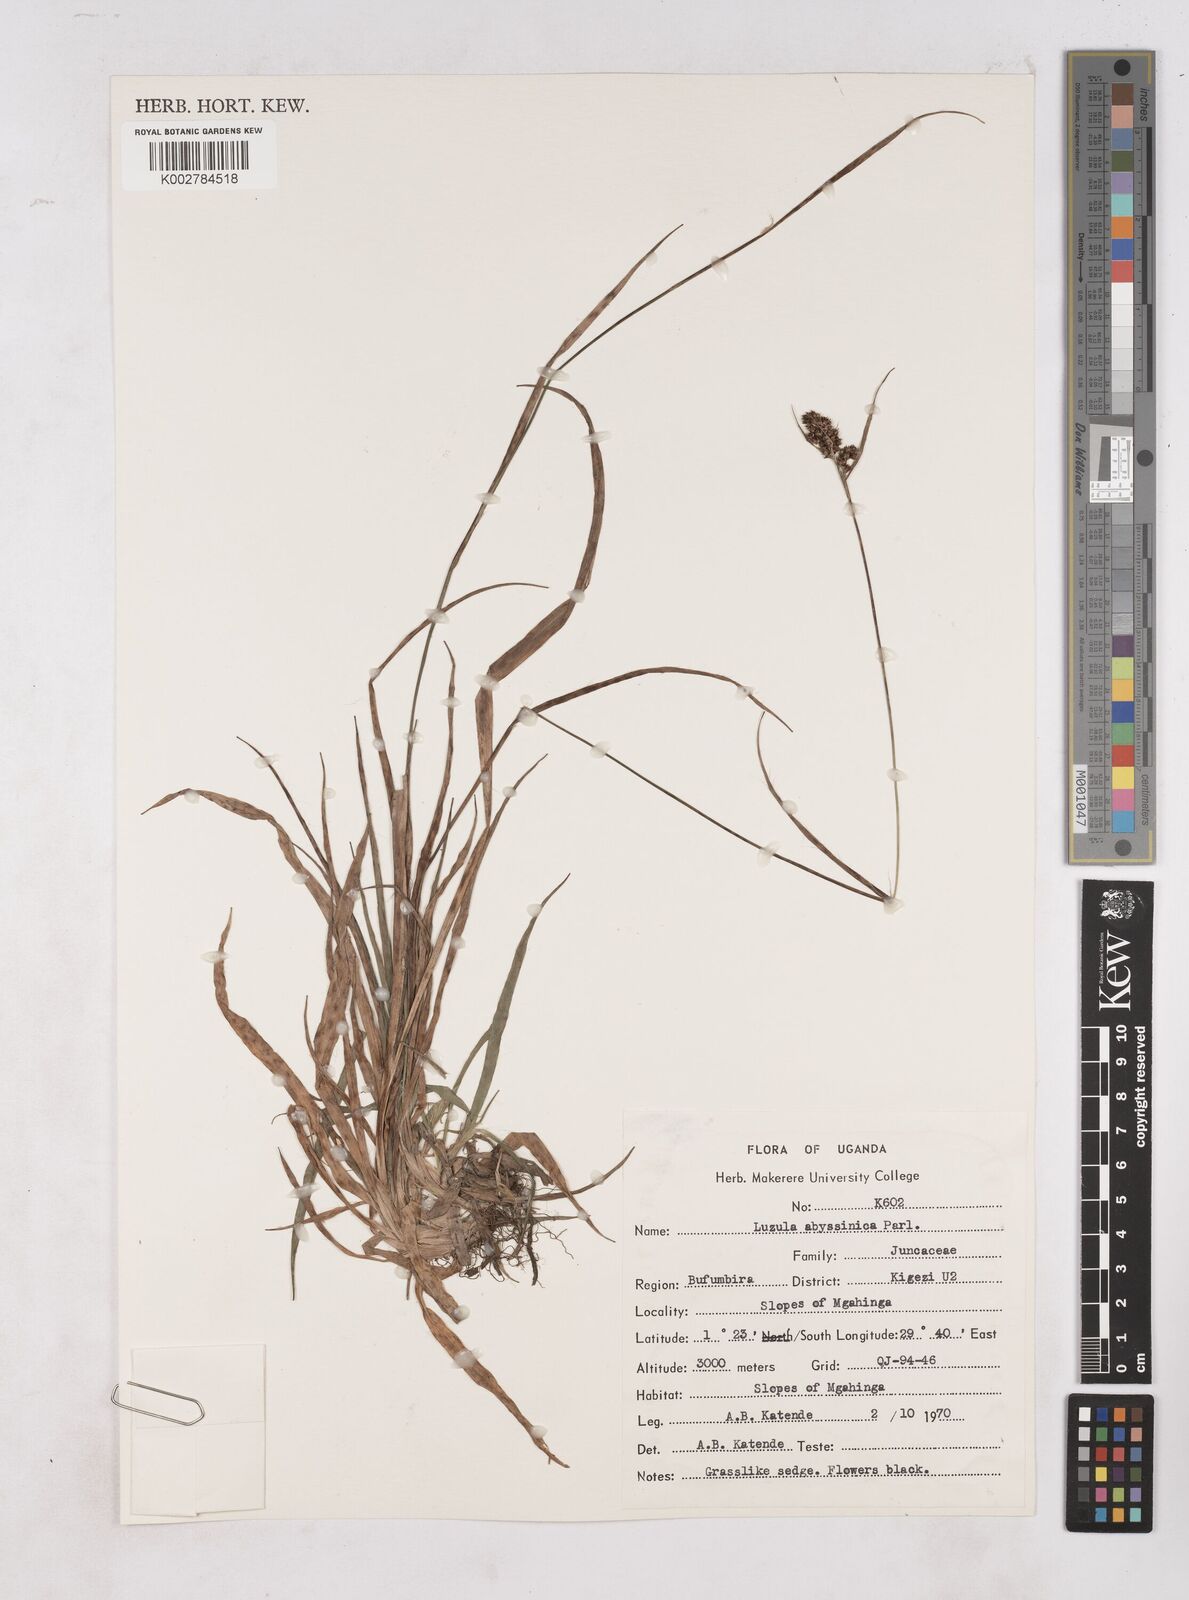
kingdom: Plantae
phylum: Tracheophyta
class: Liliopsida
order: Poales
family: Juncaceae
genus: Luzula
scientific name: Luzula abyssinica
